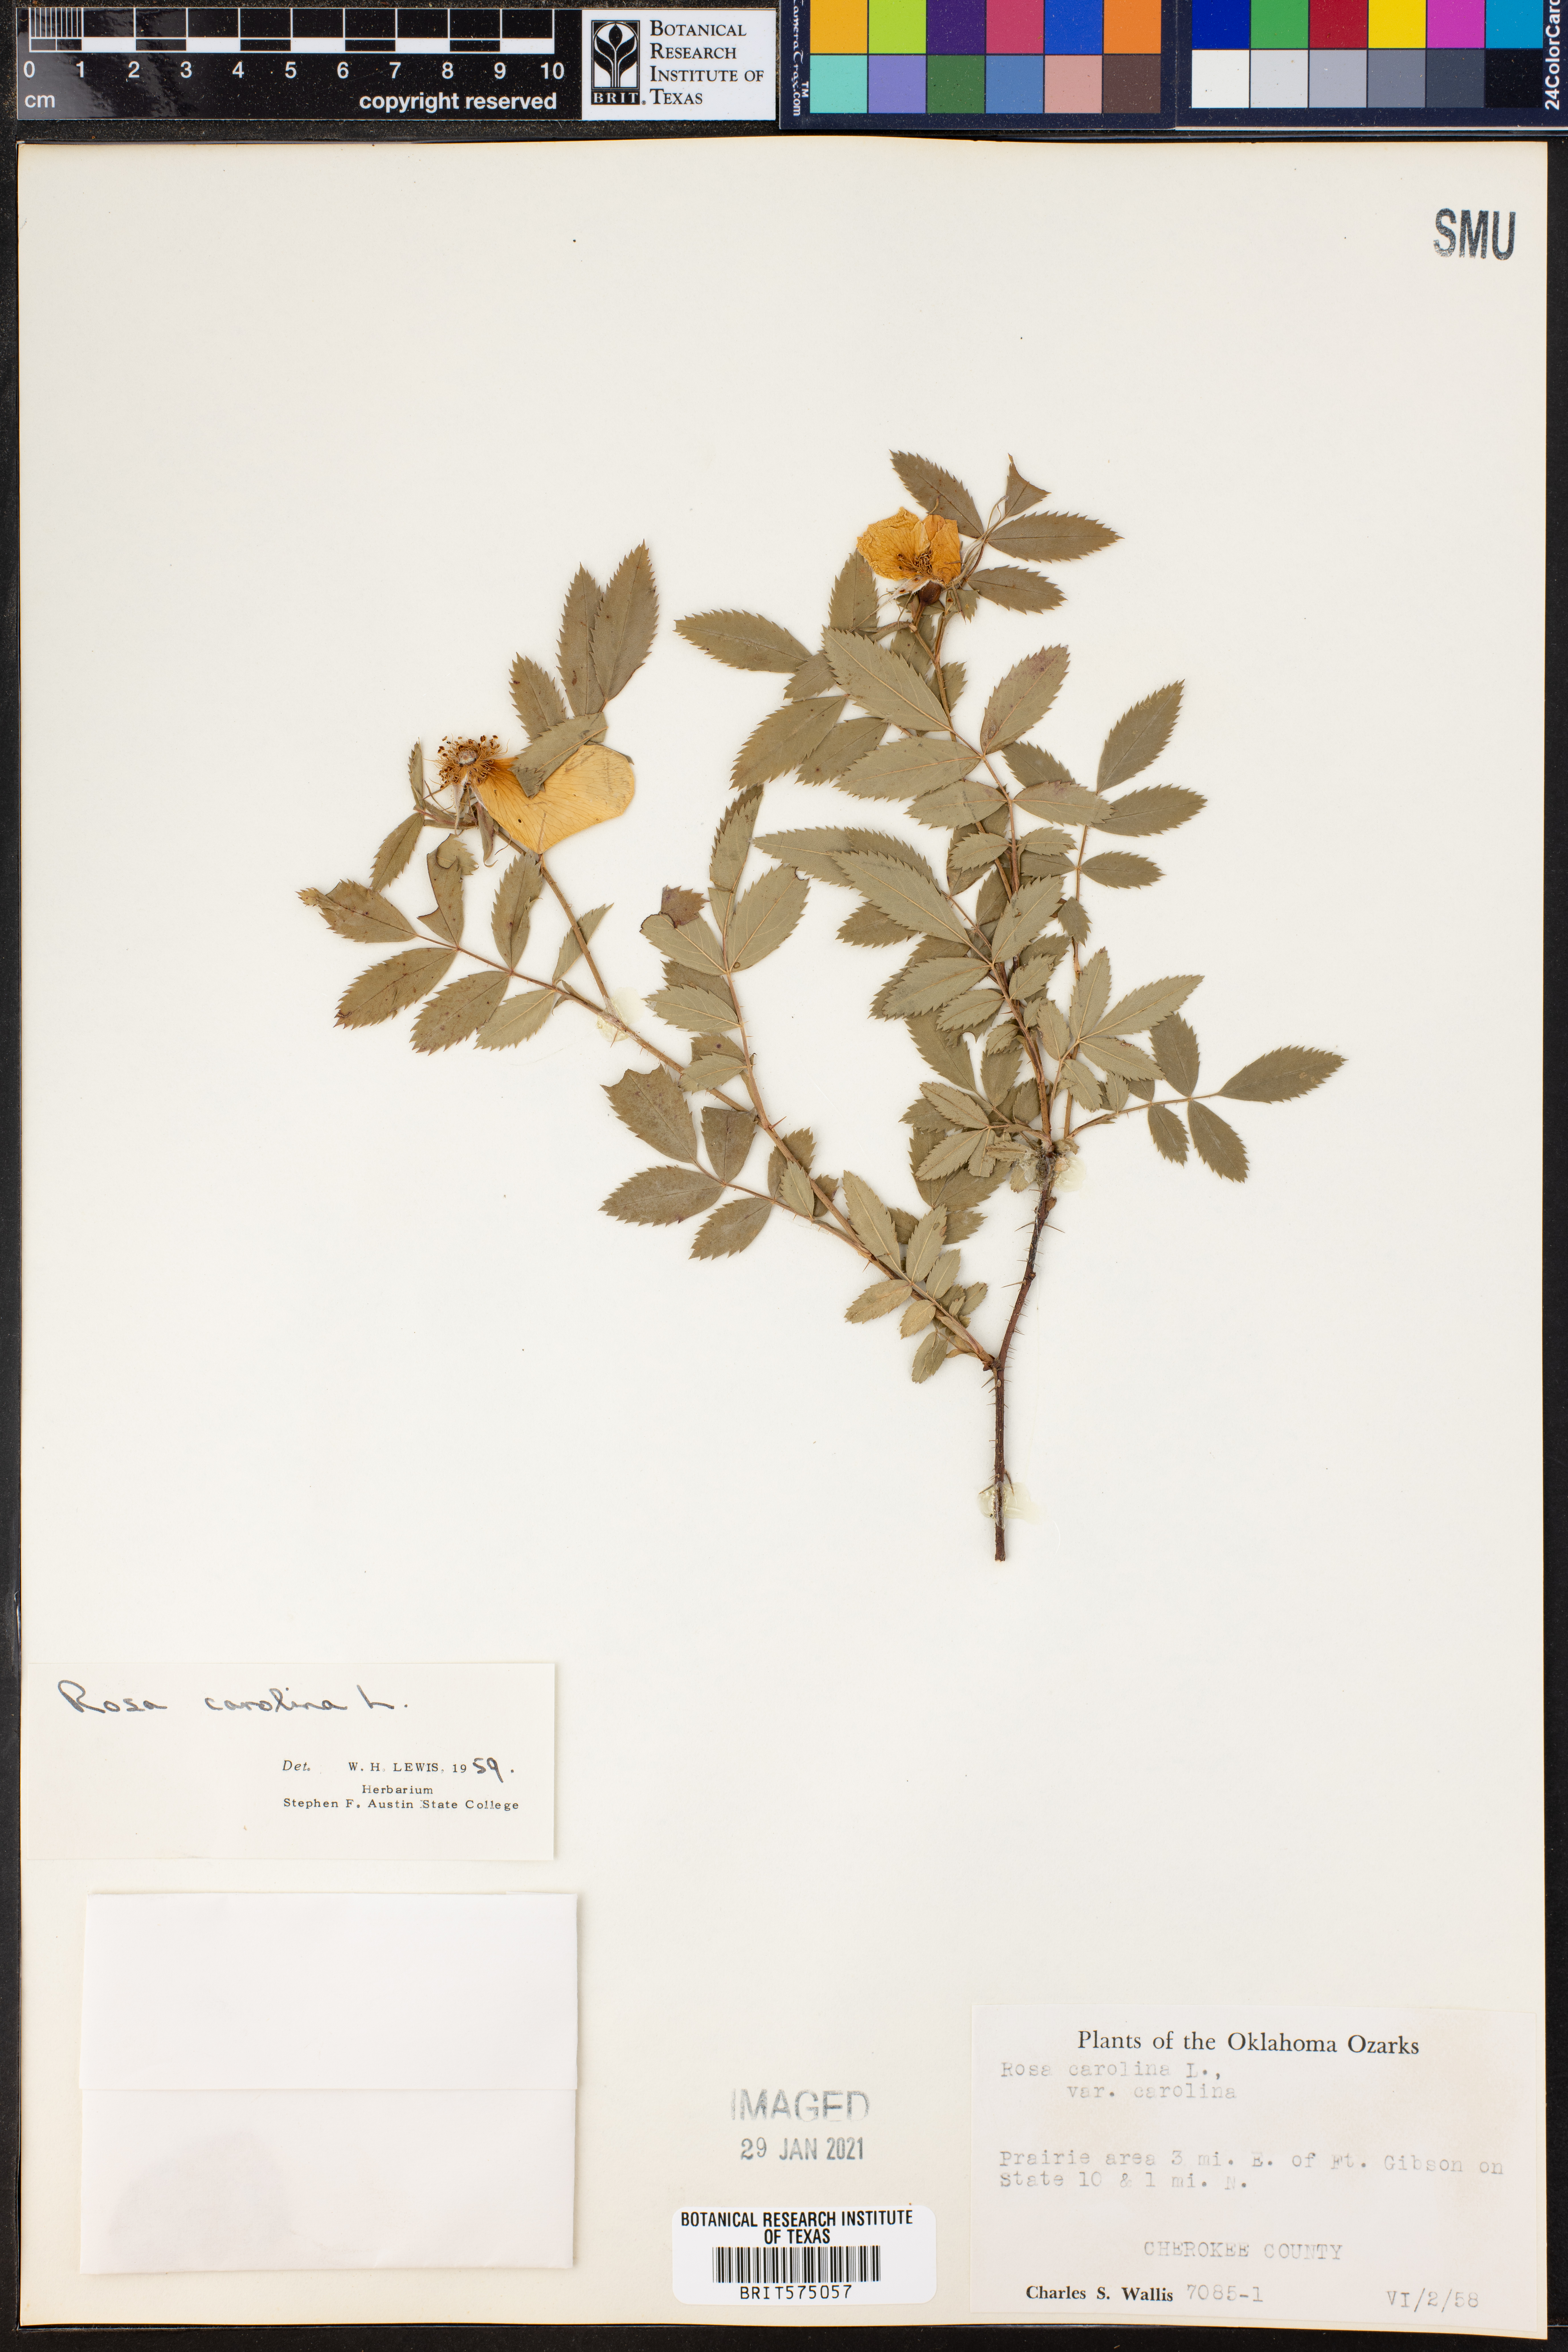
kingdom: Plantae
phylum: Tracheophyta
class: Magnoliopsida
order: Rosales
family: Rosaceae
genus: Rosa
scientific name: Rosa carolina
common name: Pasture rose
